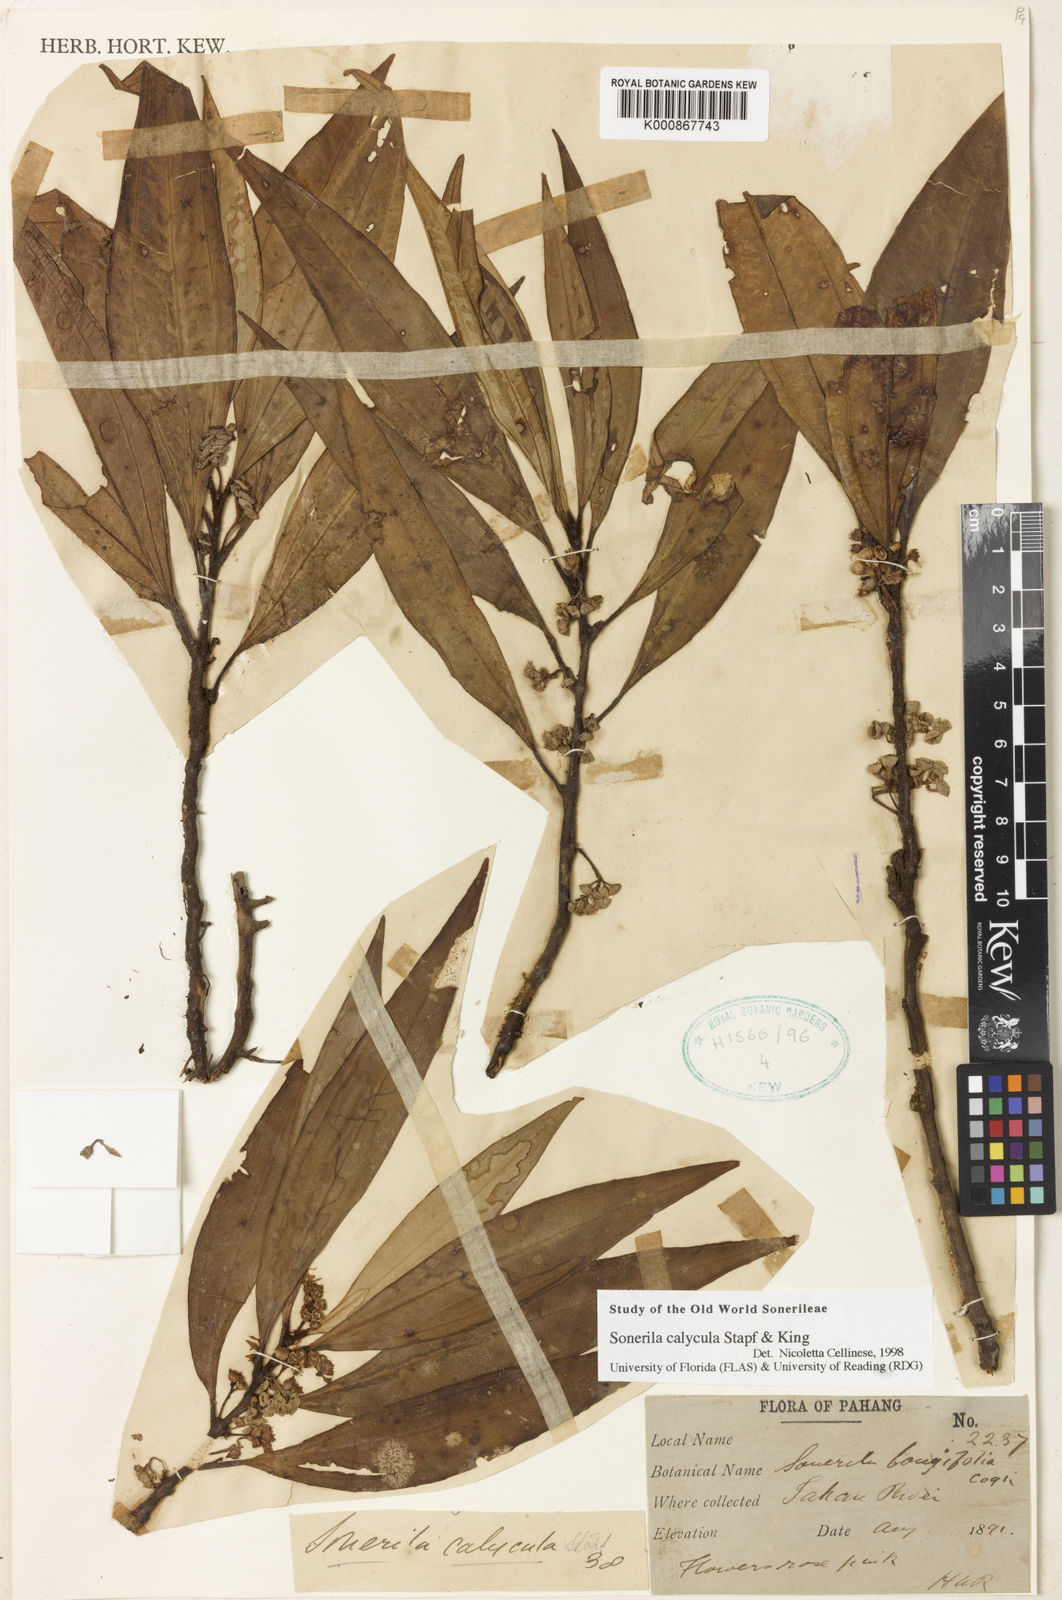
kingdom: Plantae
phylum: Tracheophyta
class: Magnoliopsida
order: Myrtales
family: Melastomataceae
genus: Sonerila
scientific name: Sonerila calycula
